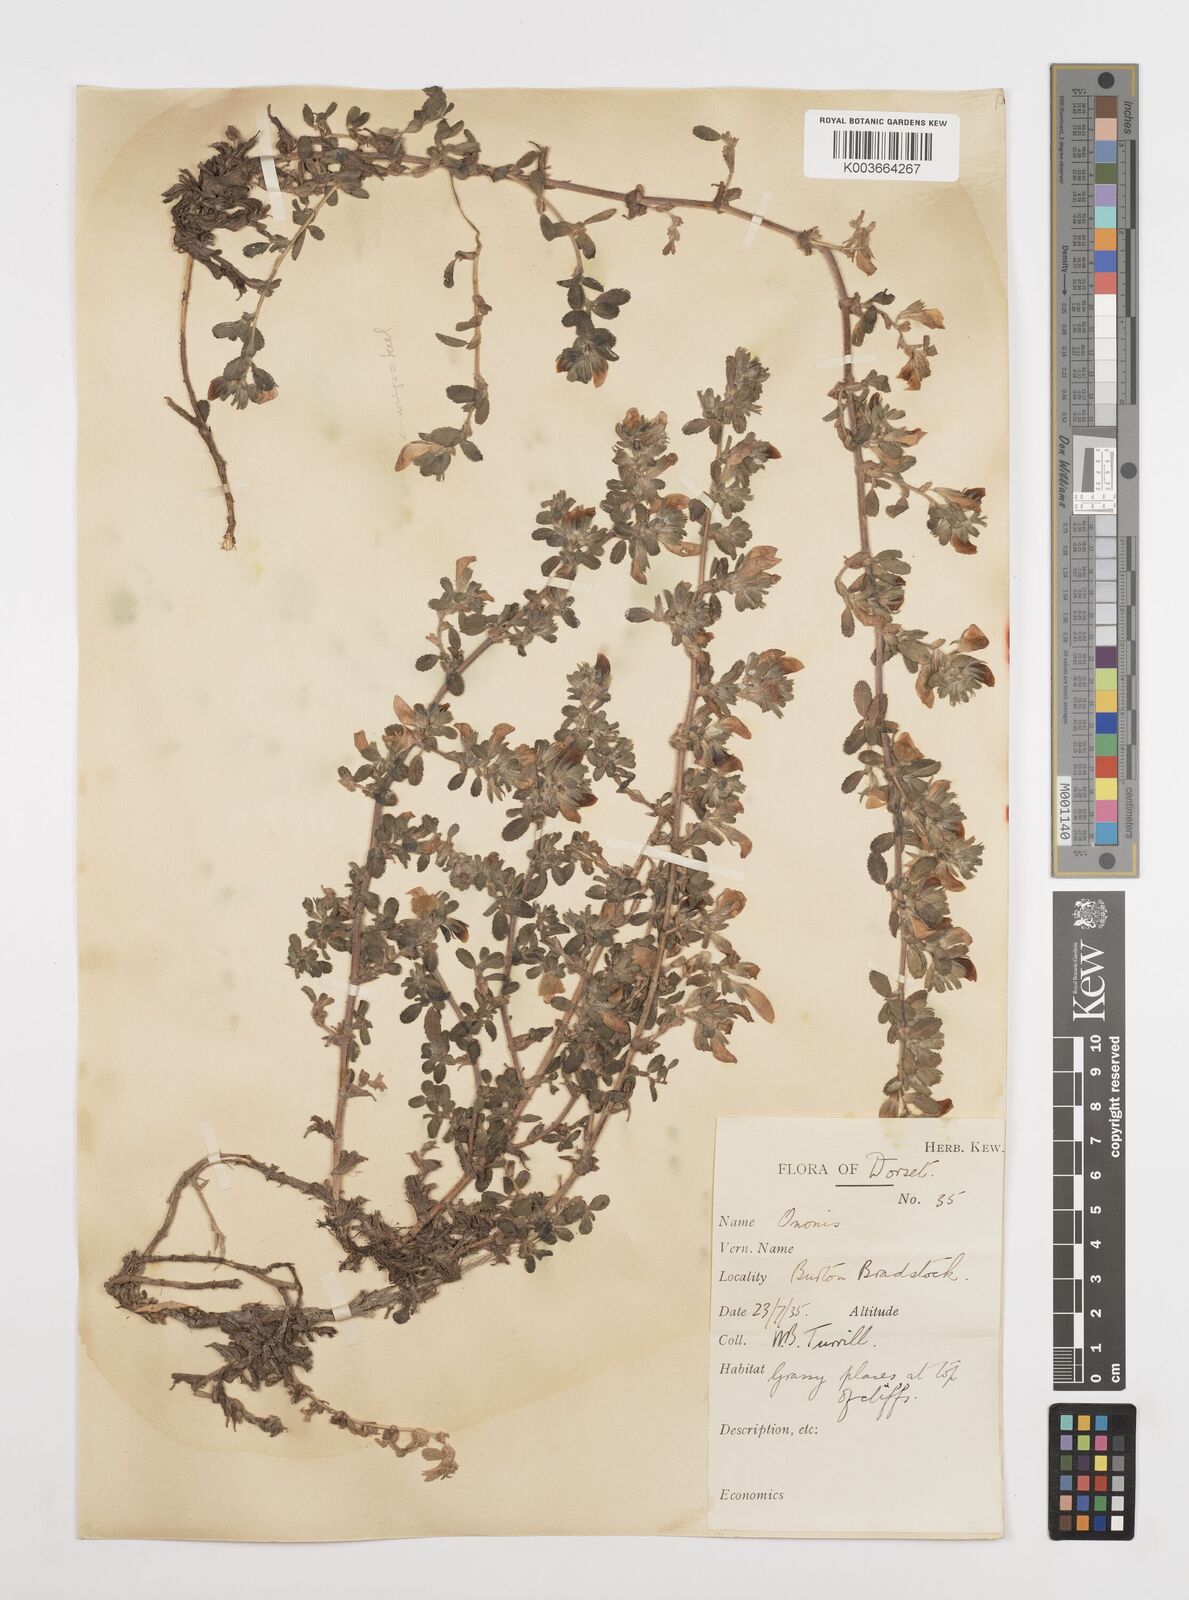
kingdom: Plantae
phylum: Tracheophyta
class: Magnoliopsida
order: Fabales
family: Fabaceae
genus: Ononis
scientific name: Ononis spinosa
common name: Spiny restharrow
